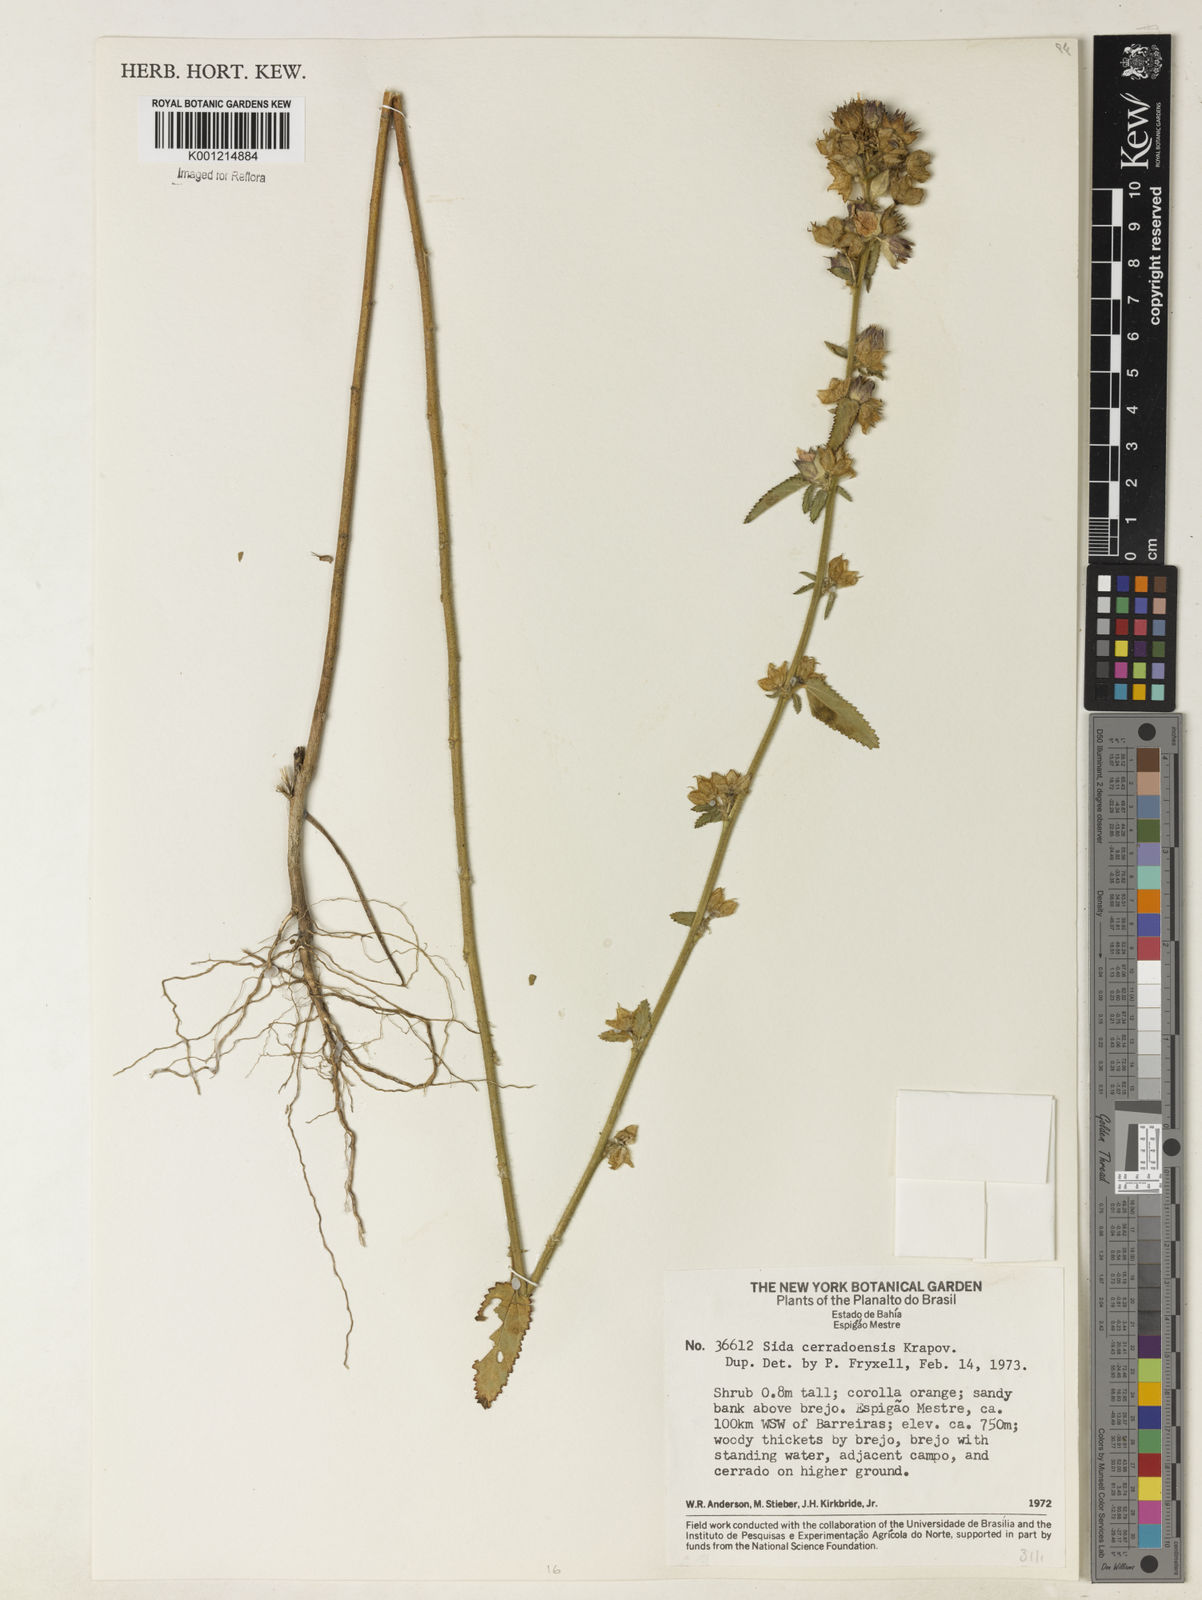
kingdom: Plantae
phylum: Tracheophyta
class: Magnoliopsida
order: Malvales
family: Malvaceae
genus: Sida
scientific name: Sida cerradoensis
